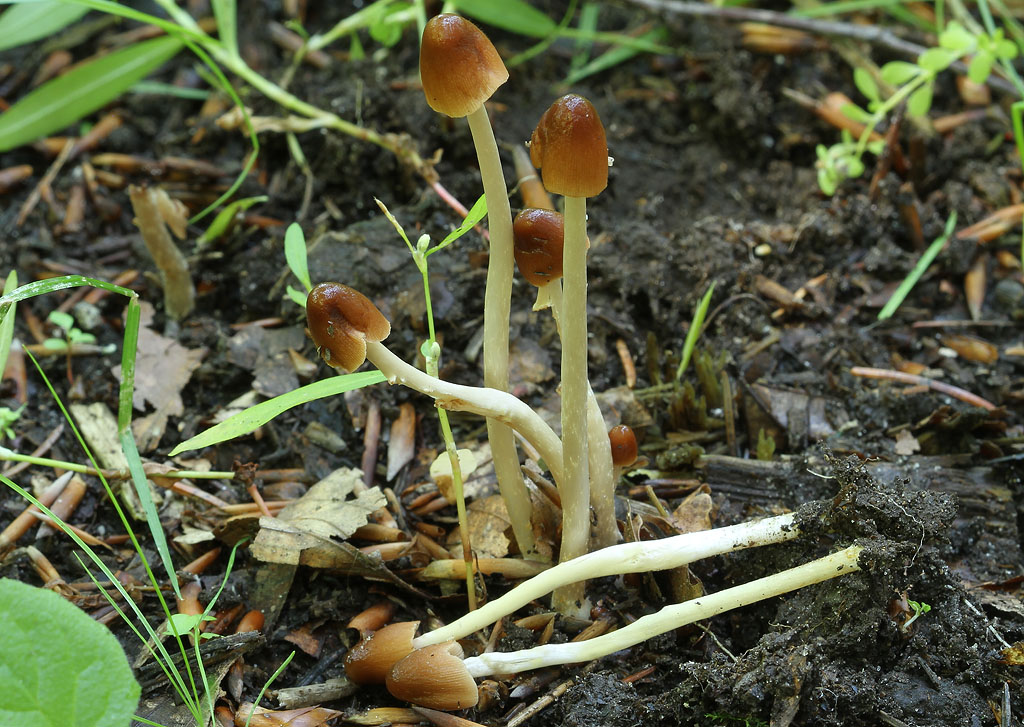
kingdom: Fungi
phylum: Basidiomycota
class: Agaricomycetes
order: Agaricales
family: Psathyrellaceae
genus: Parasola
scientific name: Parasola conopilea
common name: kegle-hjulhat
